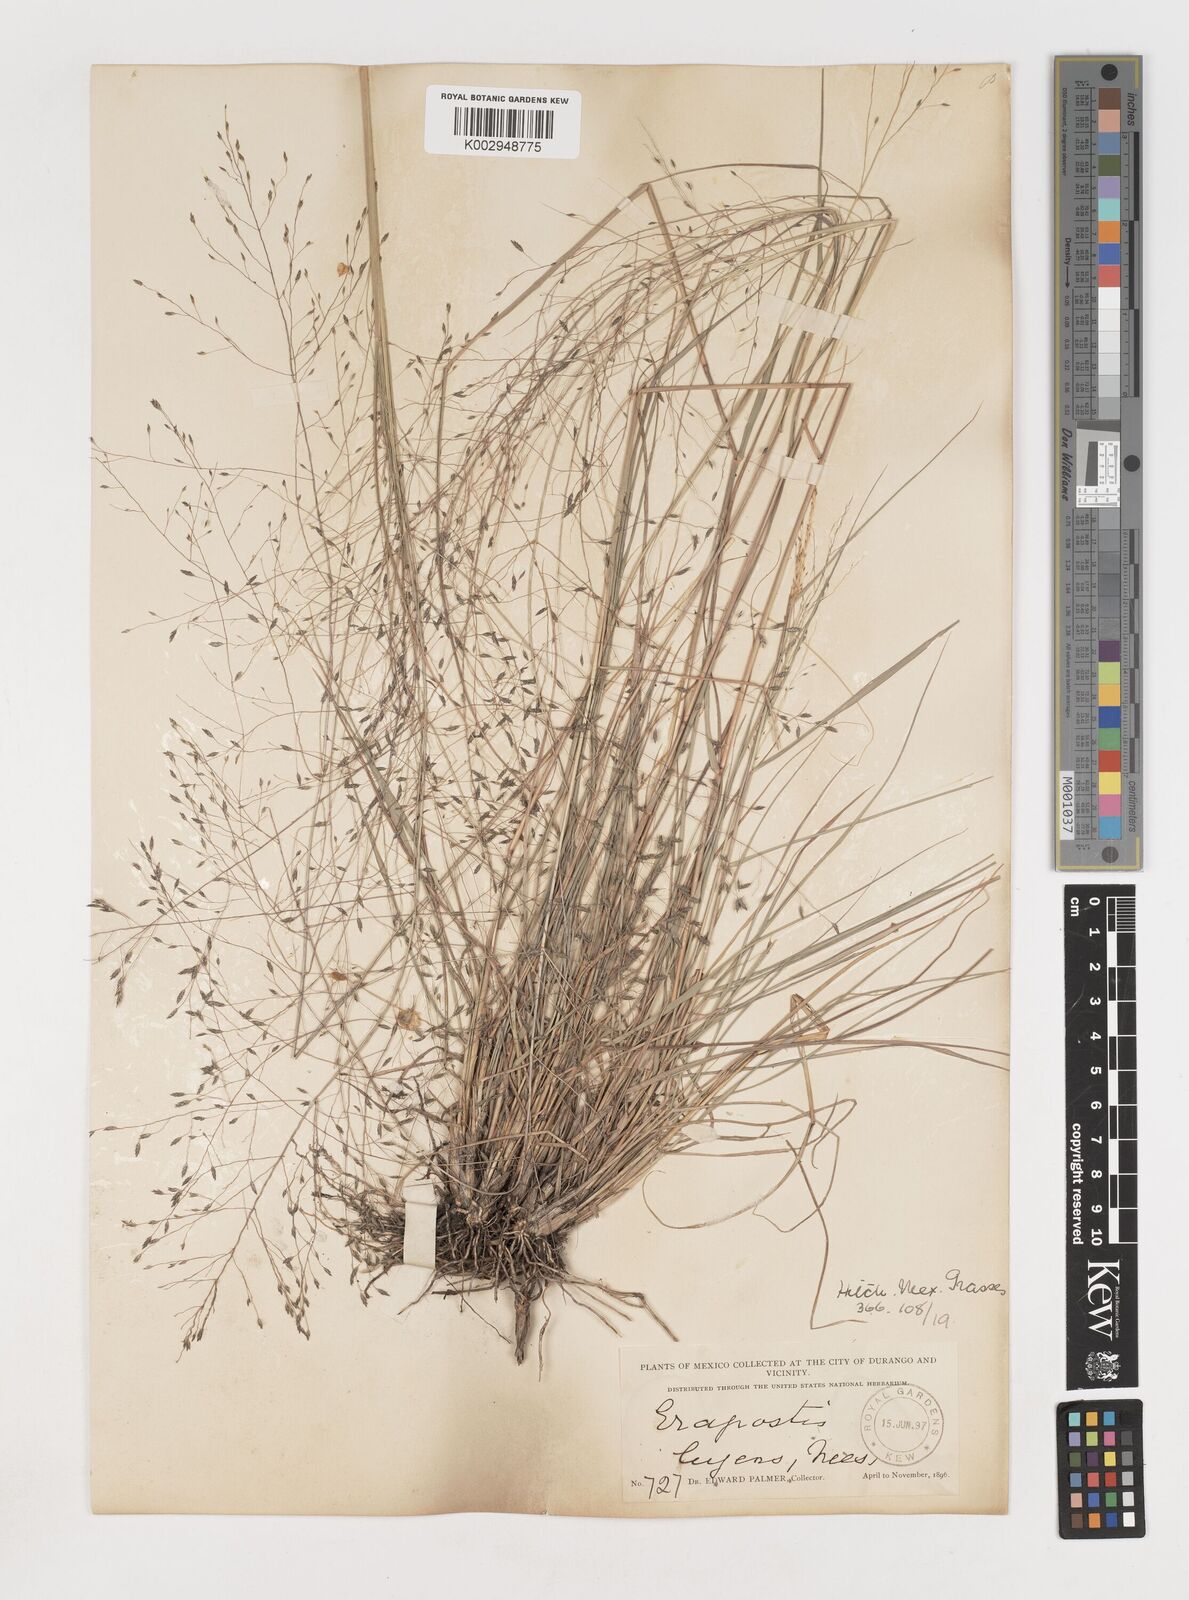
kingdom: Plantae
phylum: Tracheophyta
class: Liliopsida
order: Poales
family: Poaceae
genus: Eragrostis
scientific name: Eragrostis
